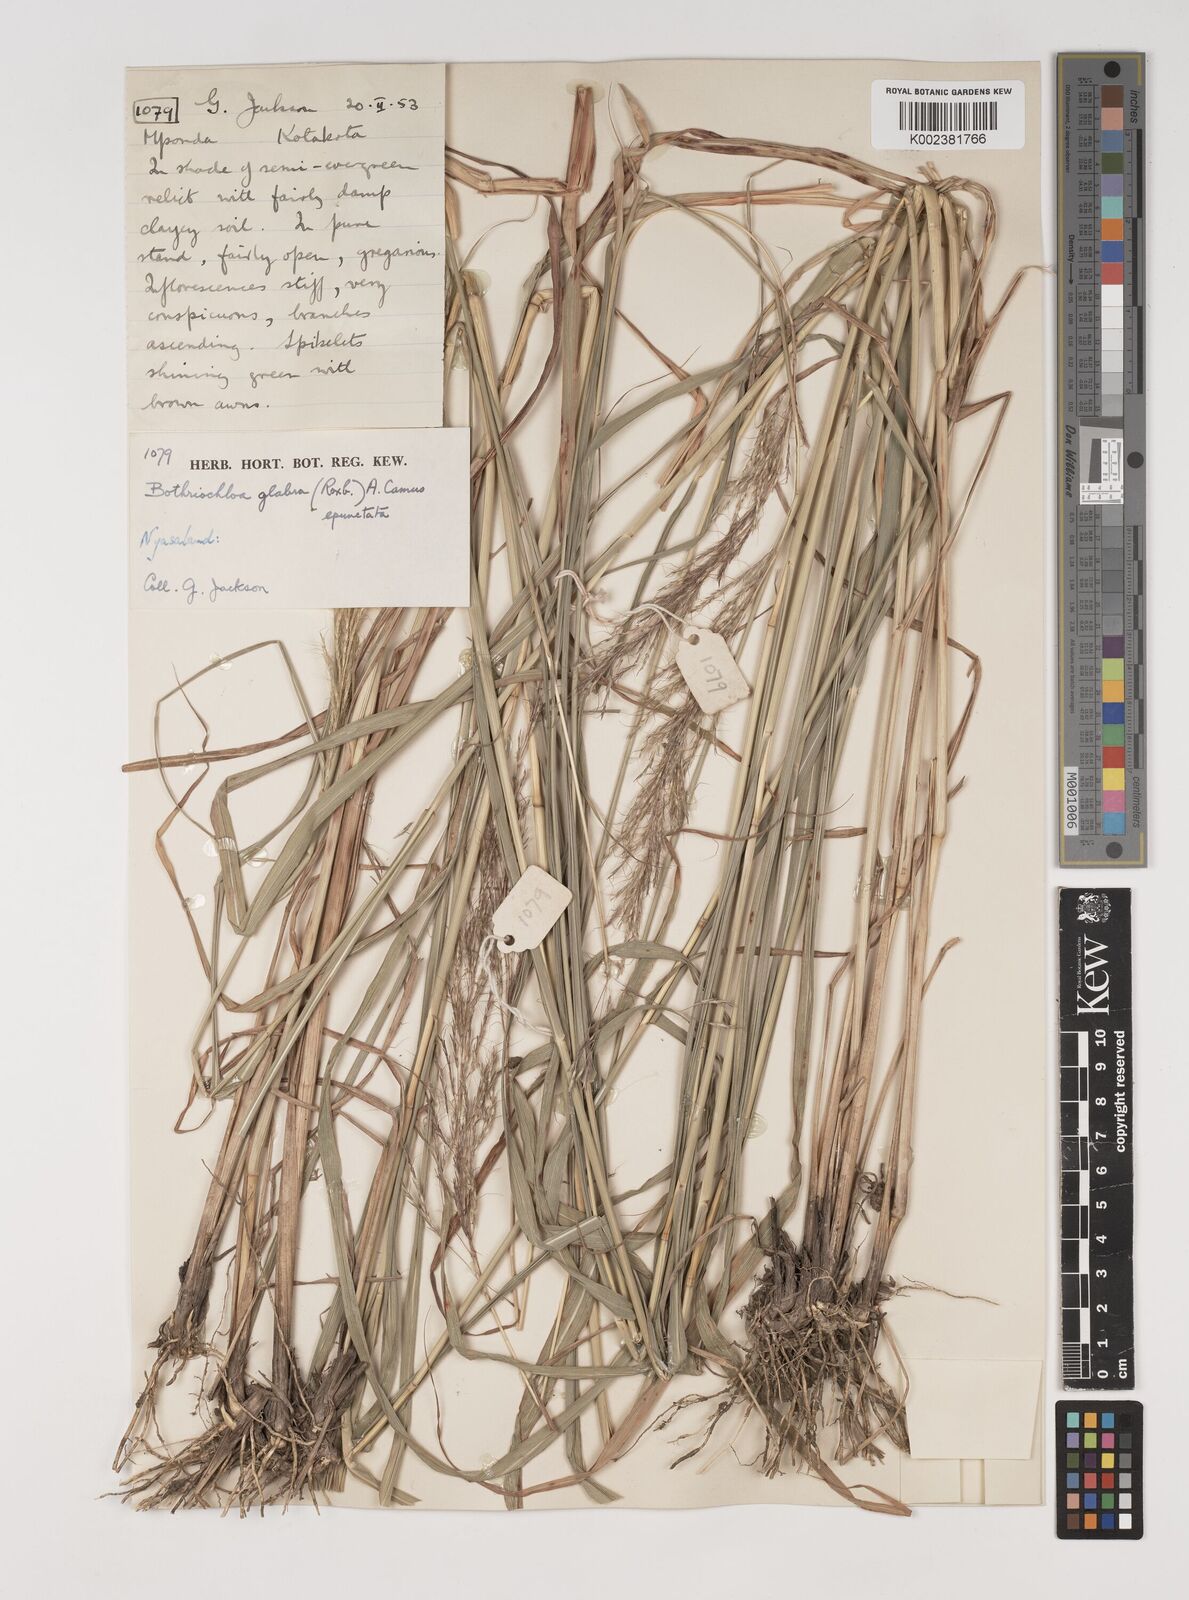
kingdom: Plantae
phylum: Tracheophyta
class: Liliopsida
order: Poales
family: Poaceae
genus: Bothriochloa
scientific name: Bothriochloa bladhii
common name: Caucasian bluestem
